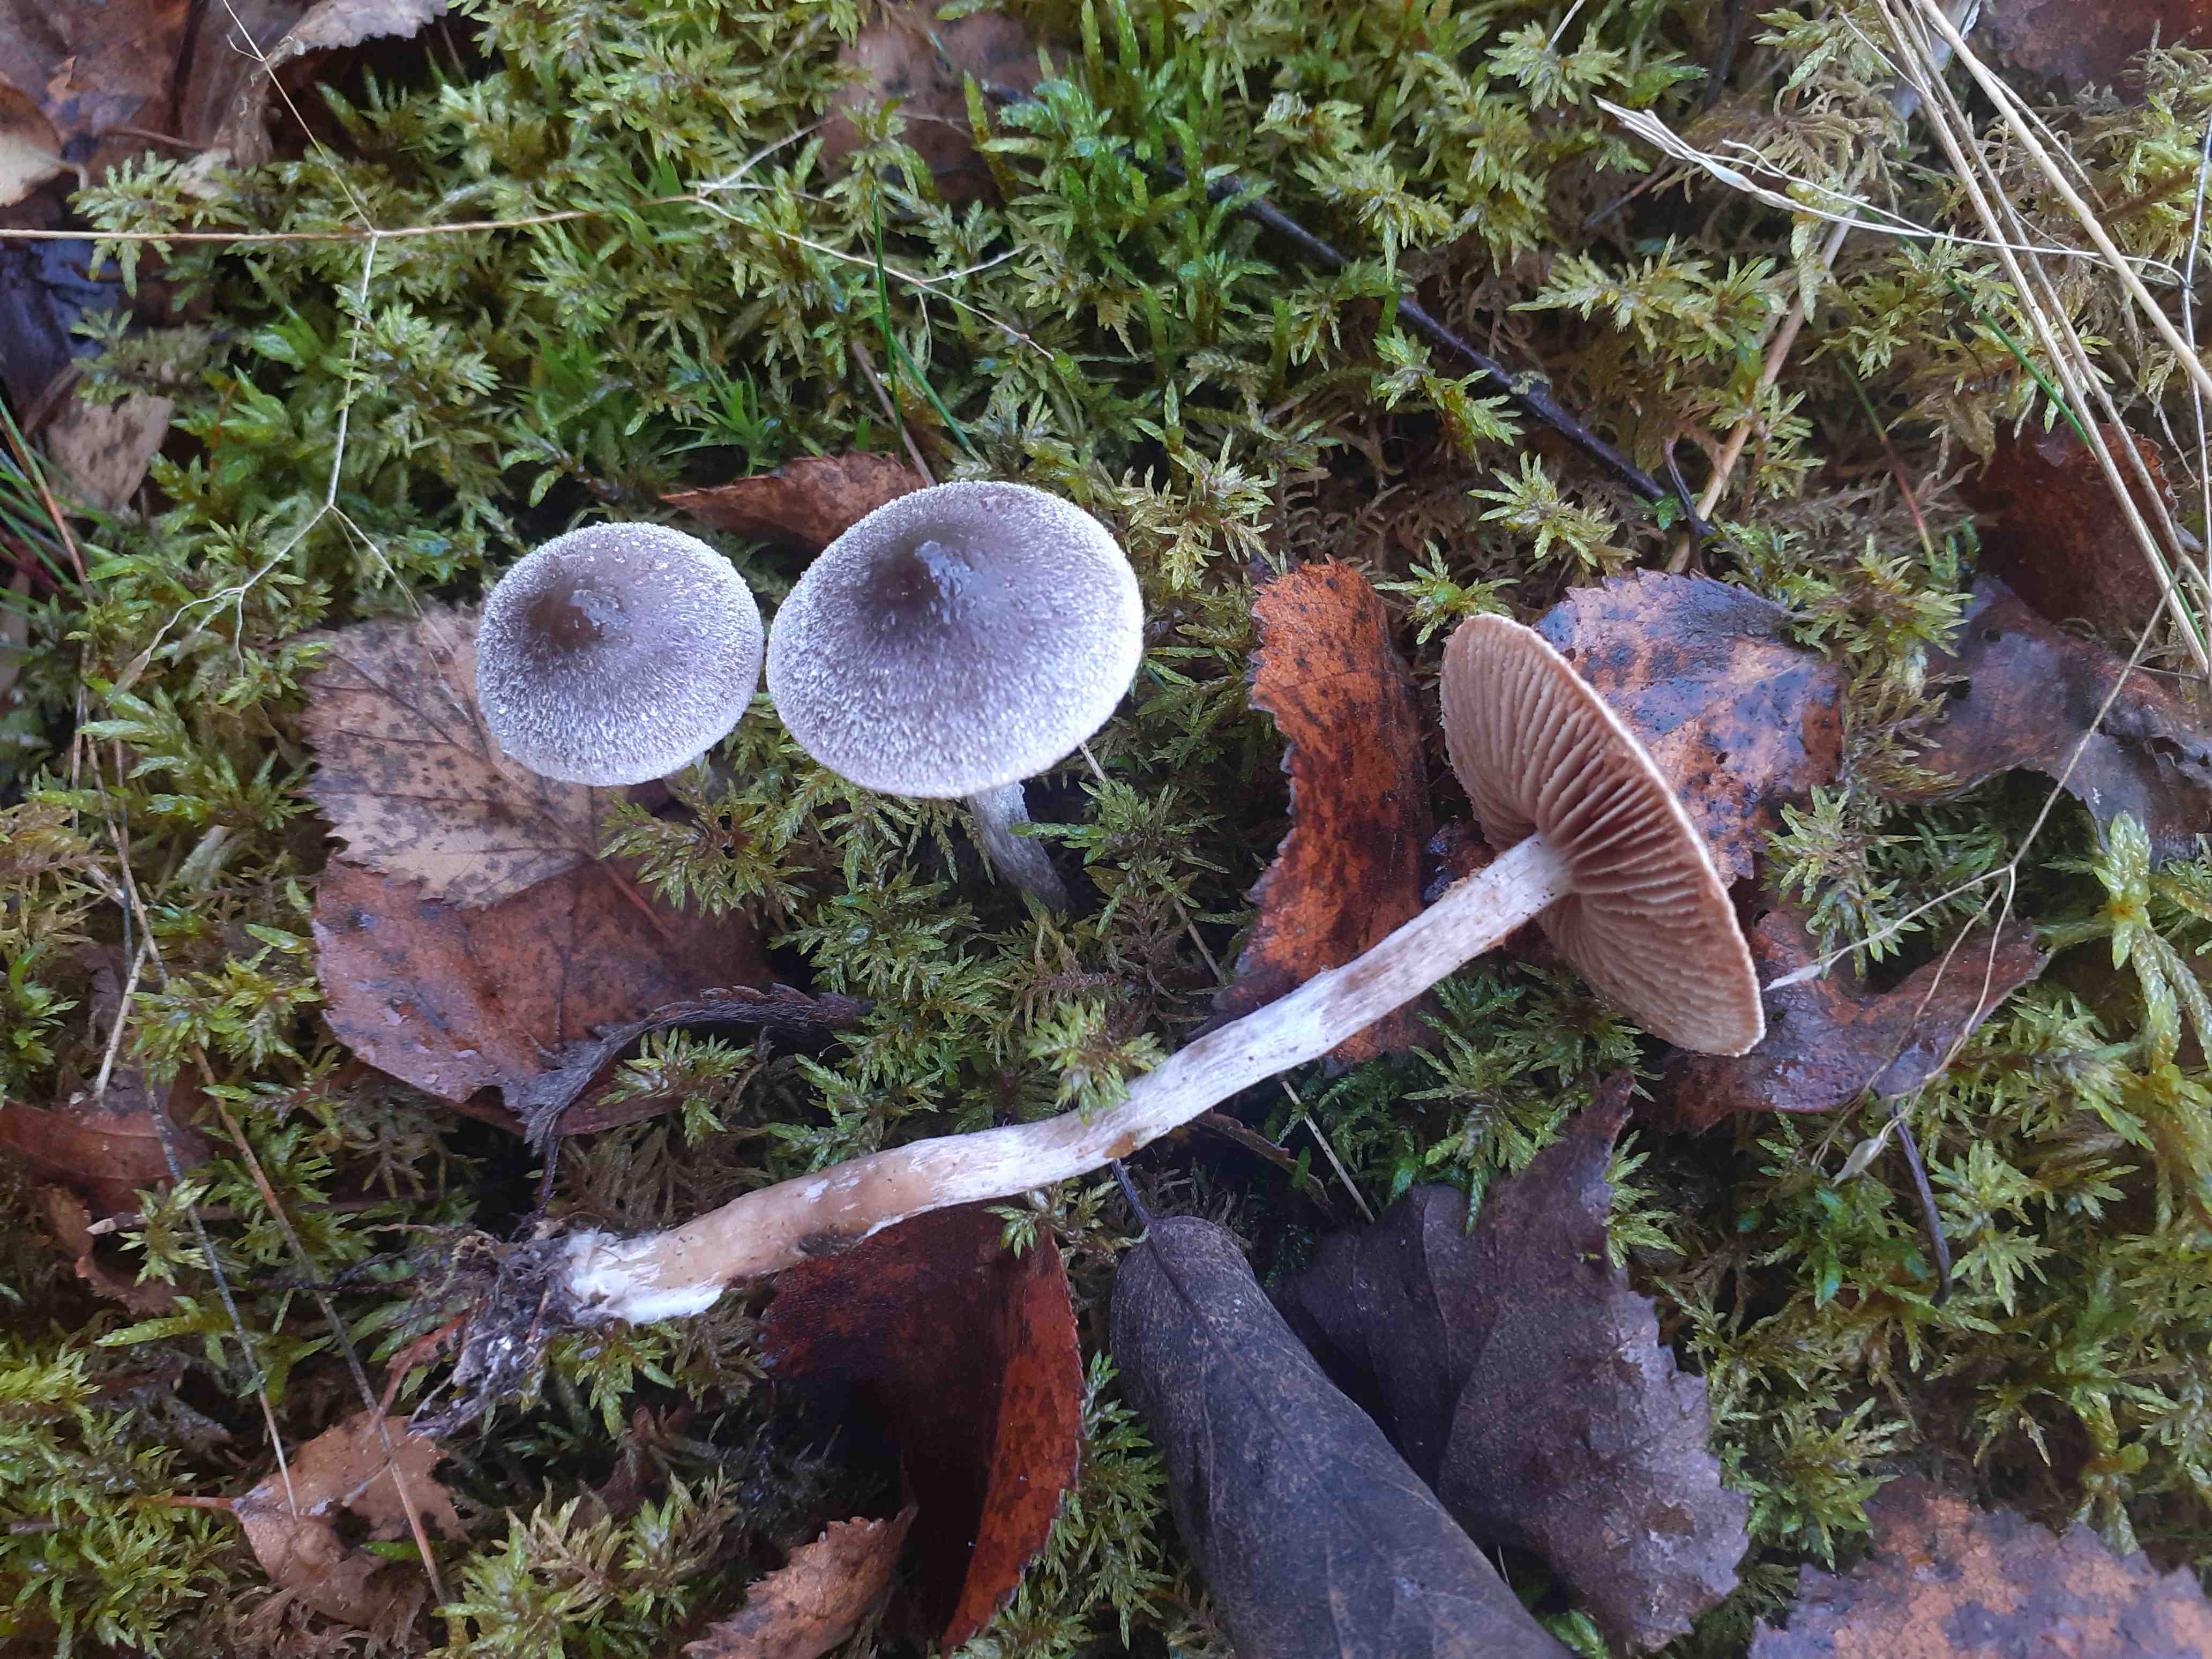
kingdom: Fungi
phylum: Basidiomycota
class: Agaricomycetes
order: Agaricales
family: Cortinariaceae
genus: Cortinarius
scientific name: Cortinarius
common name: pelargonie-slørhat
